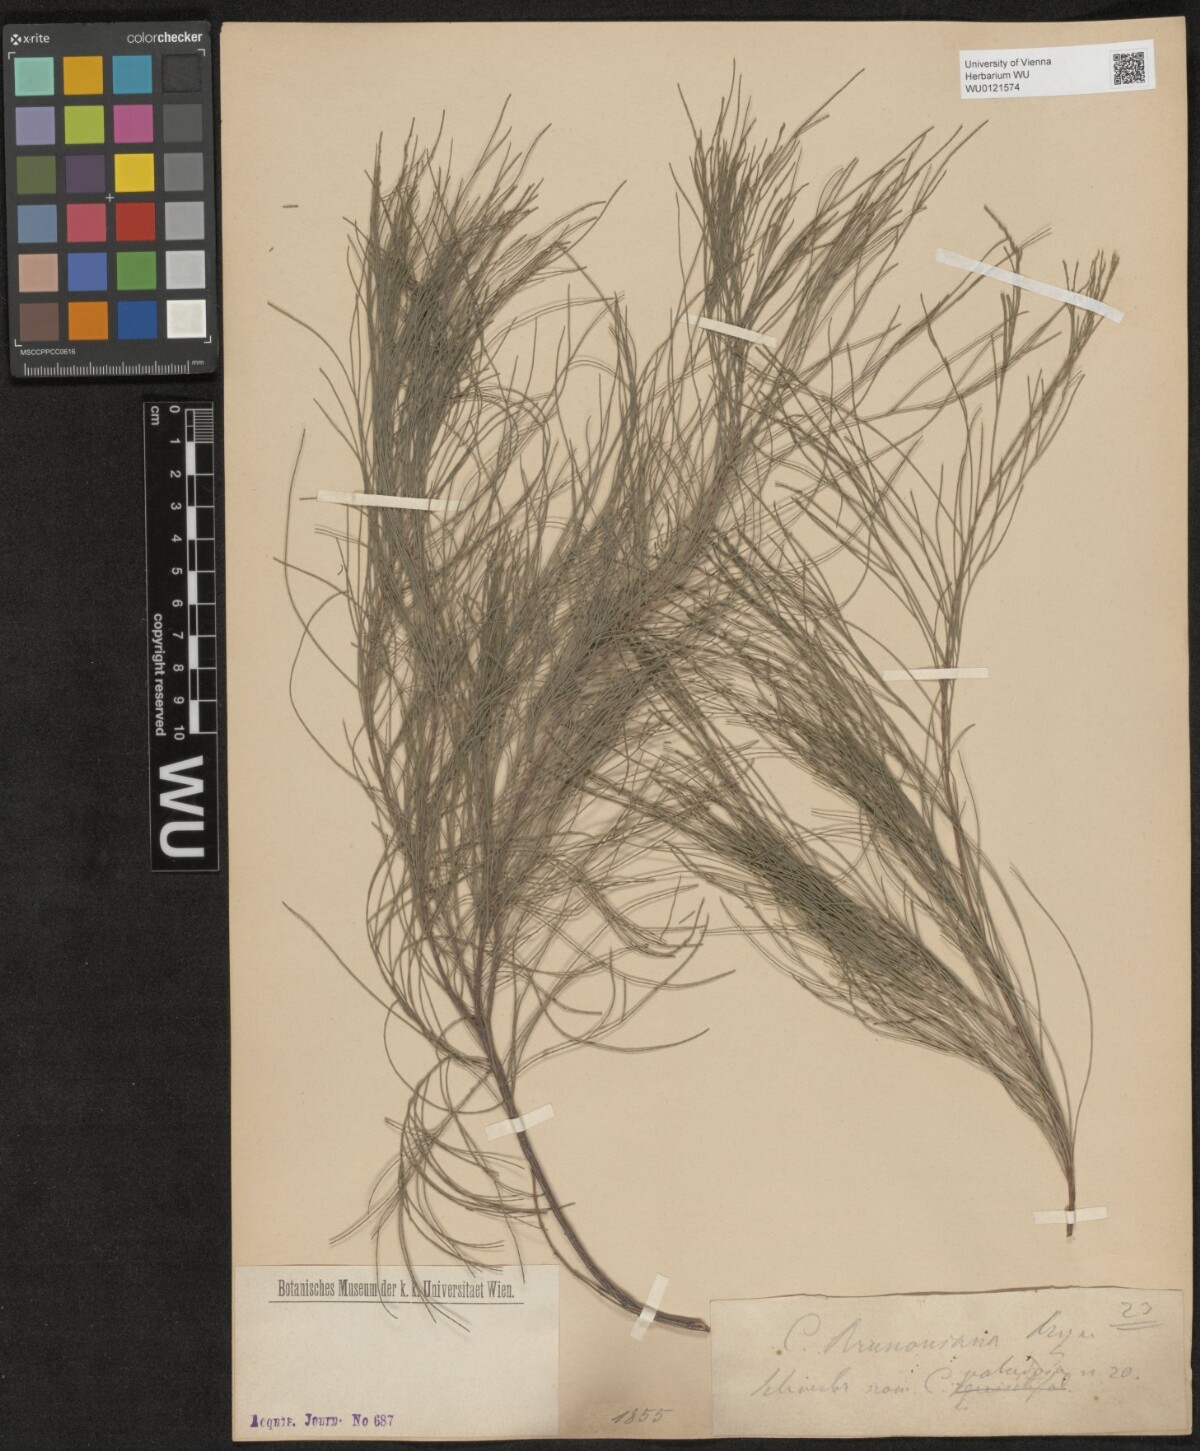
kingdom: Plantae
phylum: Tracheophyta
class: Magnoliopsida
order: Fagales
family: Casuarinaceae
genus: Casuarina
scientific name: Casuarina equisetifolia
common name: Beach sheoak
